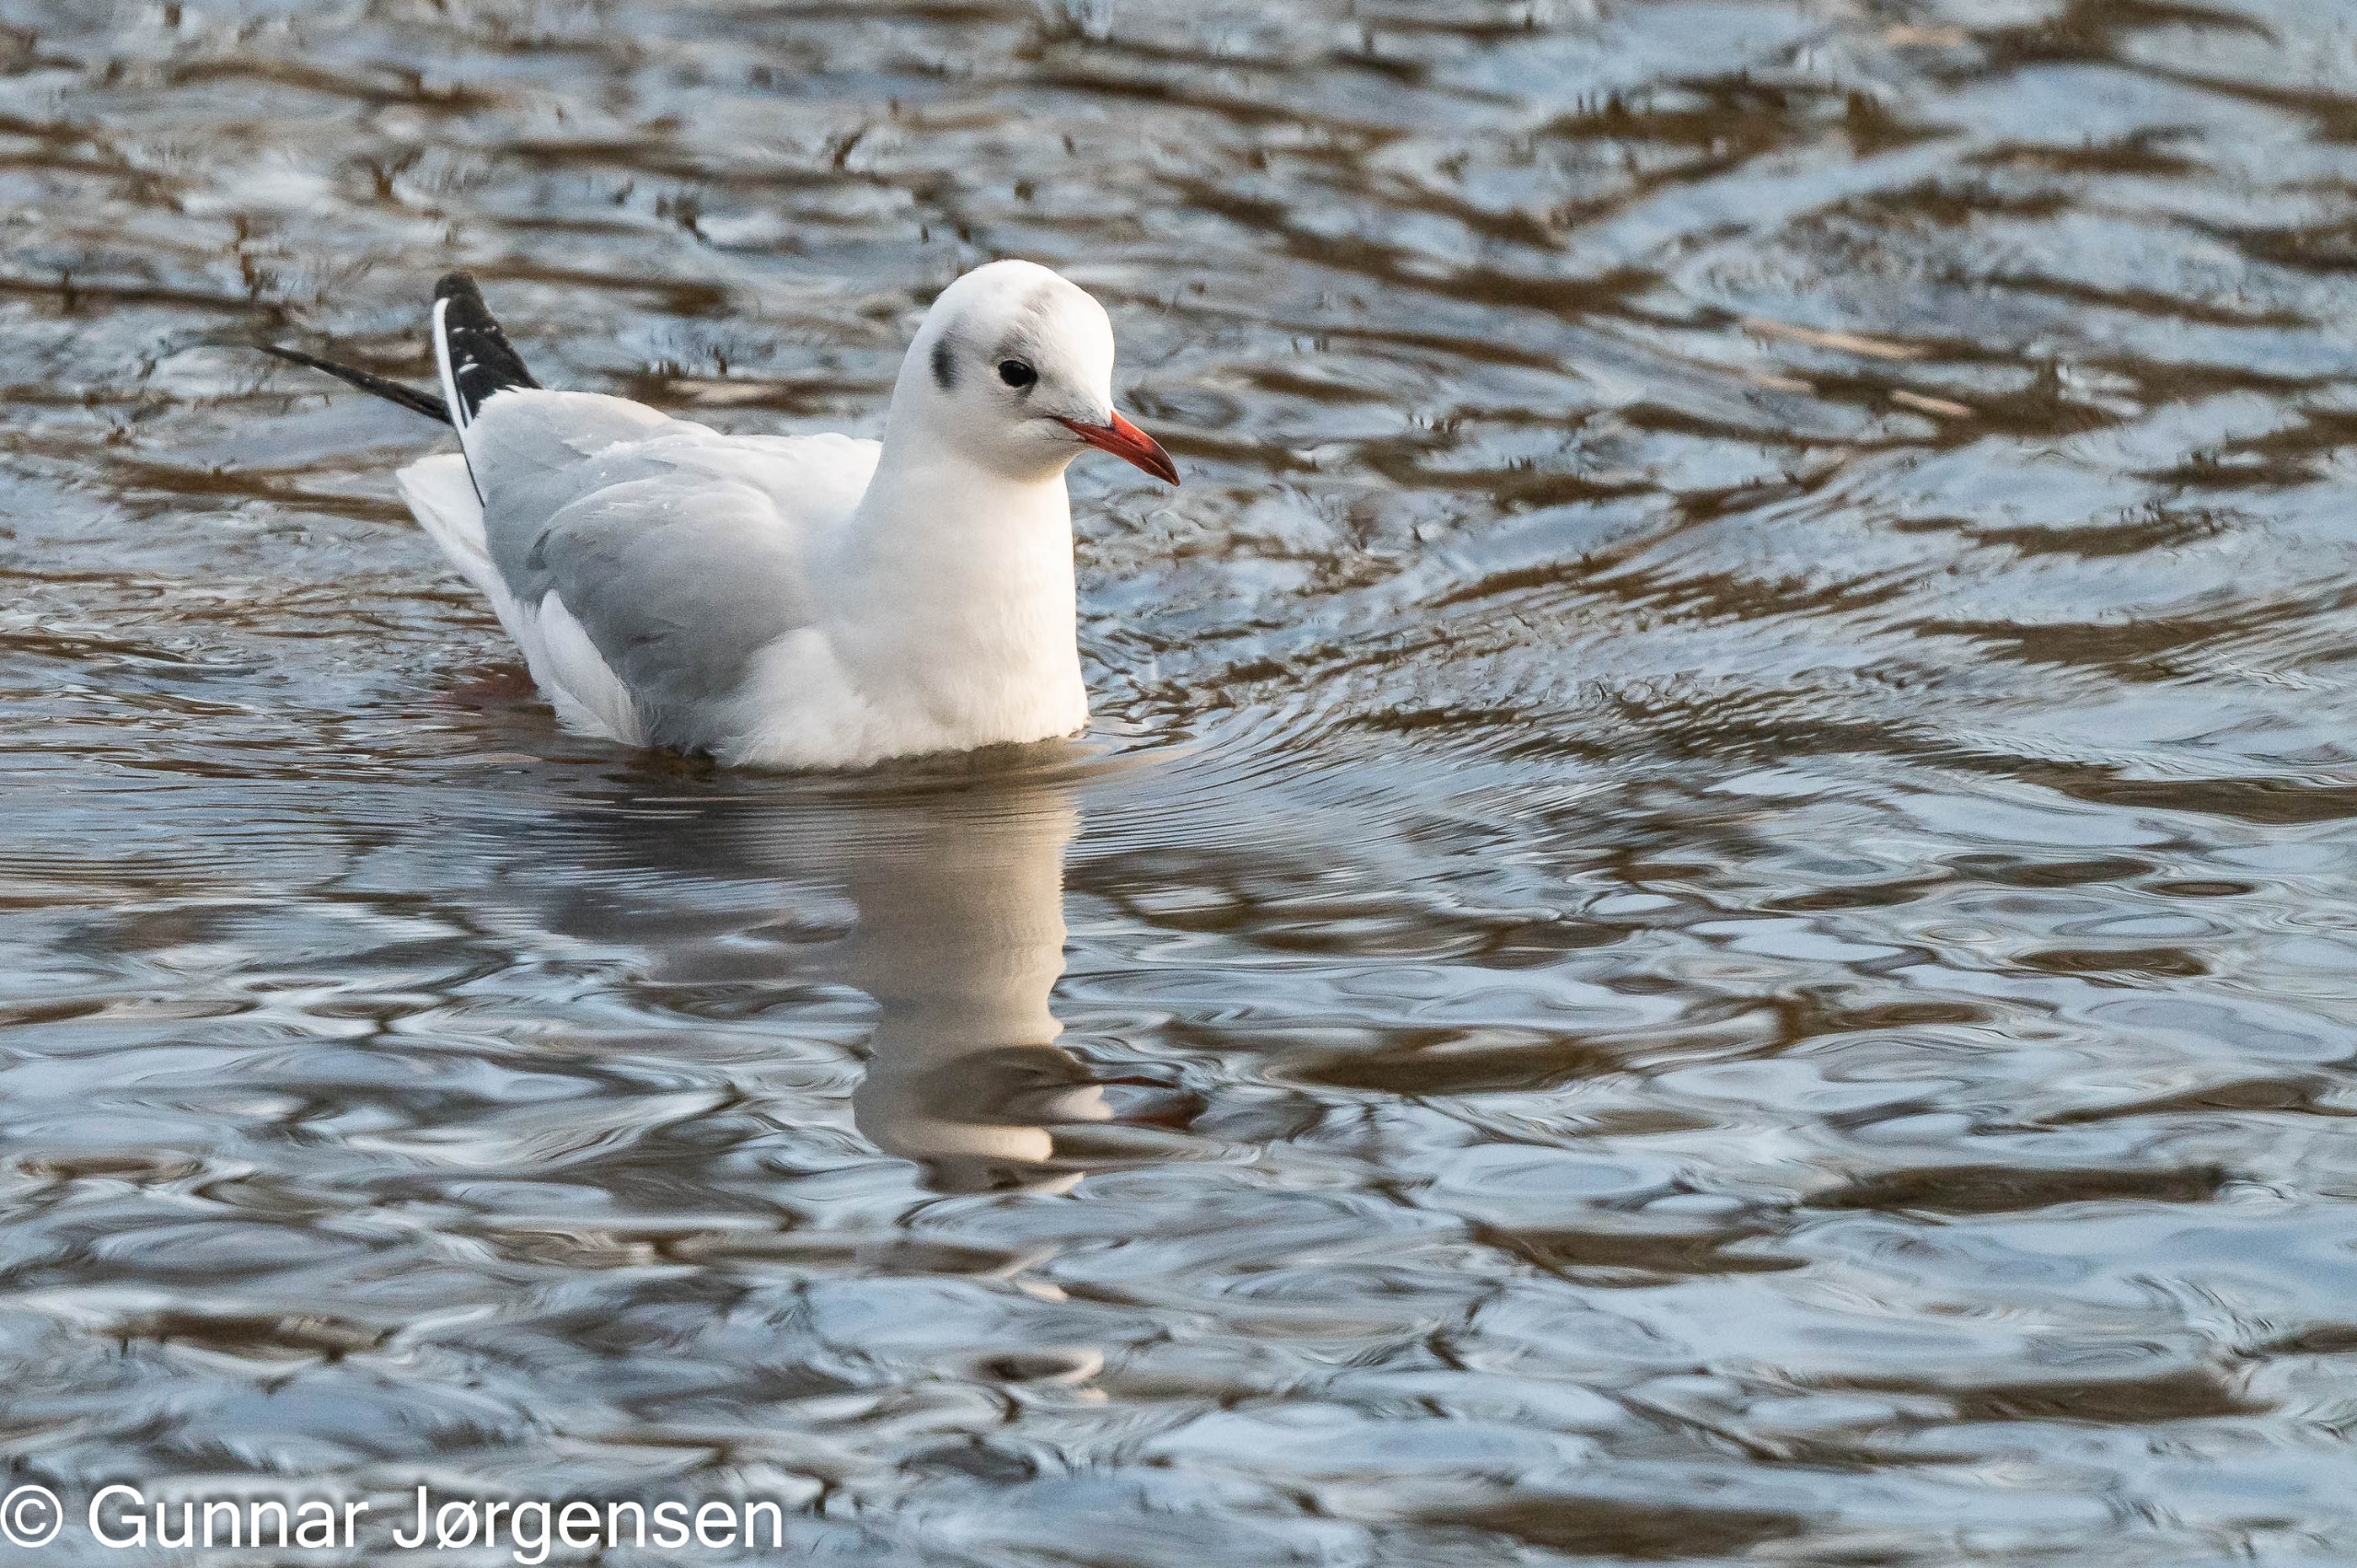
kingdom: Animalia
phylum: Chordata
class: Aves
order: Charadriiformes
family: Laridae
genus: Chroicocephalus
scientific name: Chroicocephalus ridibundus
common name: Hættemåge
